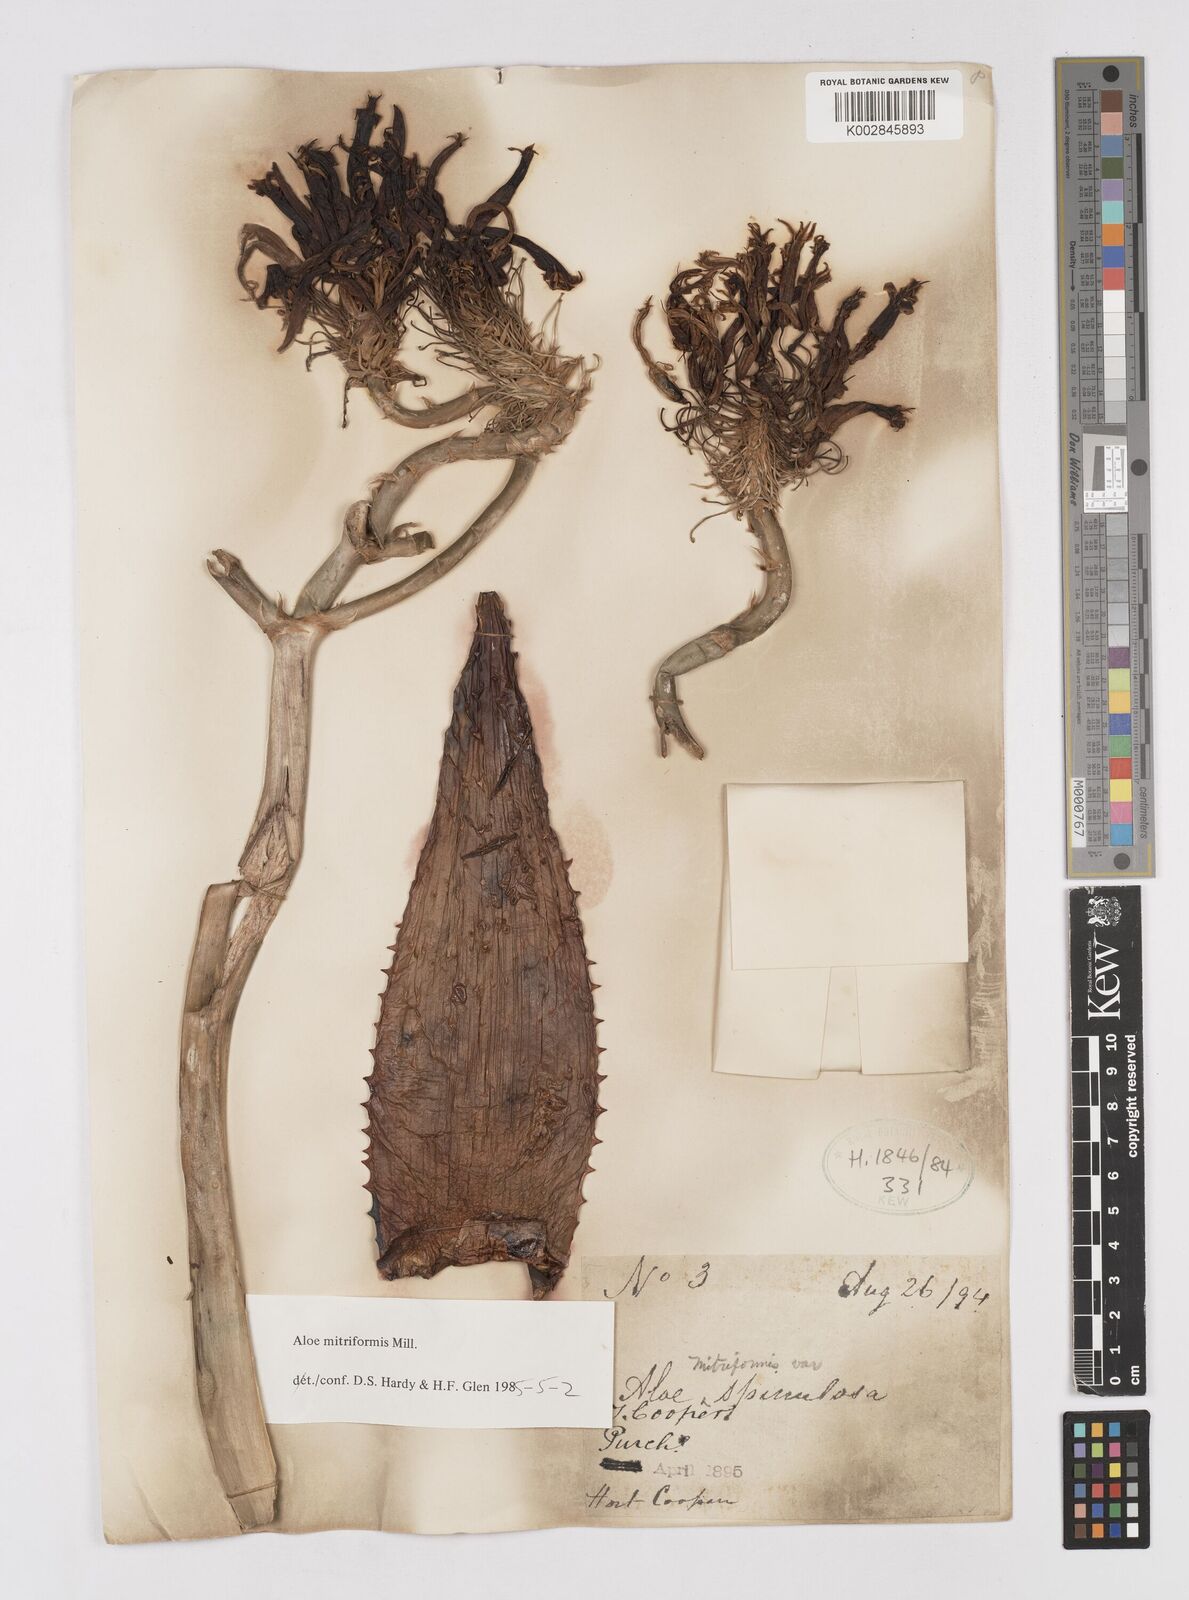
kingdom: Plantae
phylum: Tracheophyta
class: Liliopsida
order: Asparagales
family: Asphodelaceae
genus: Aloe
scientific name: Aloe perfoliata
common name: Mitra aloe
